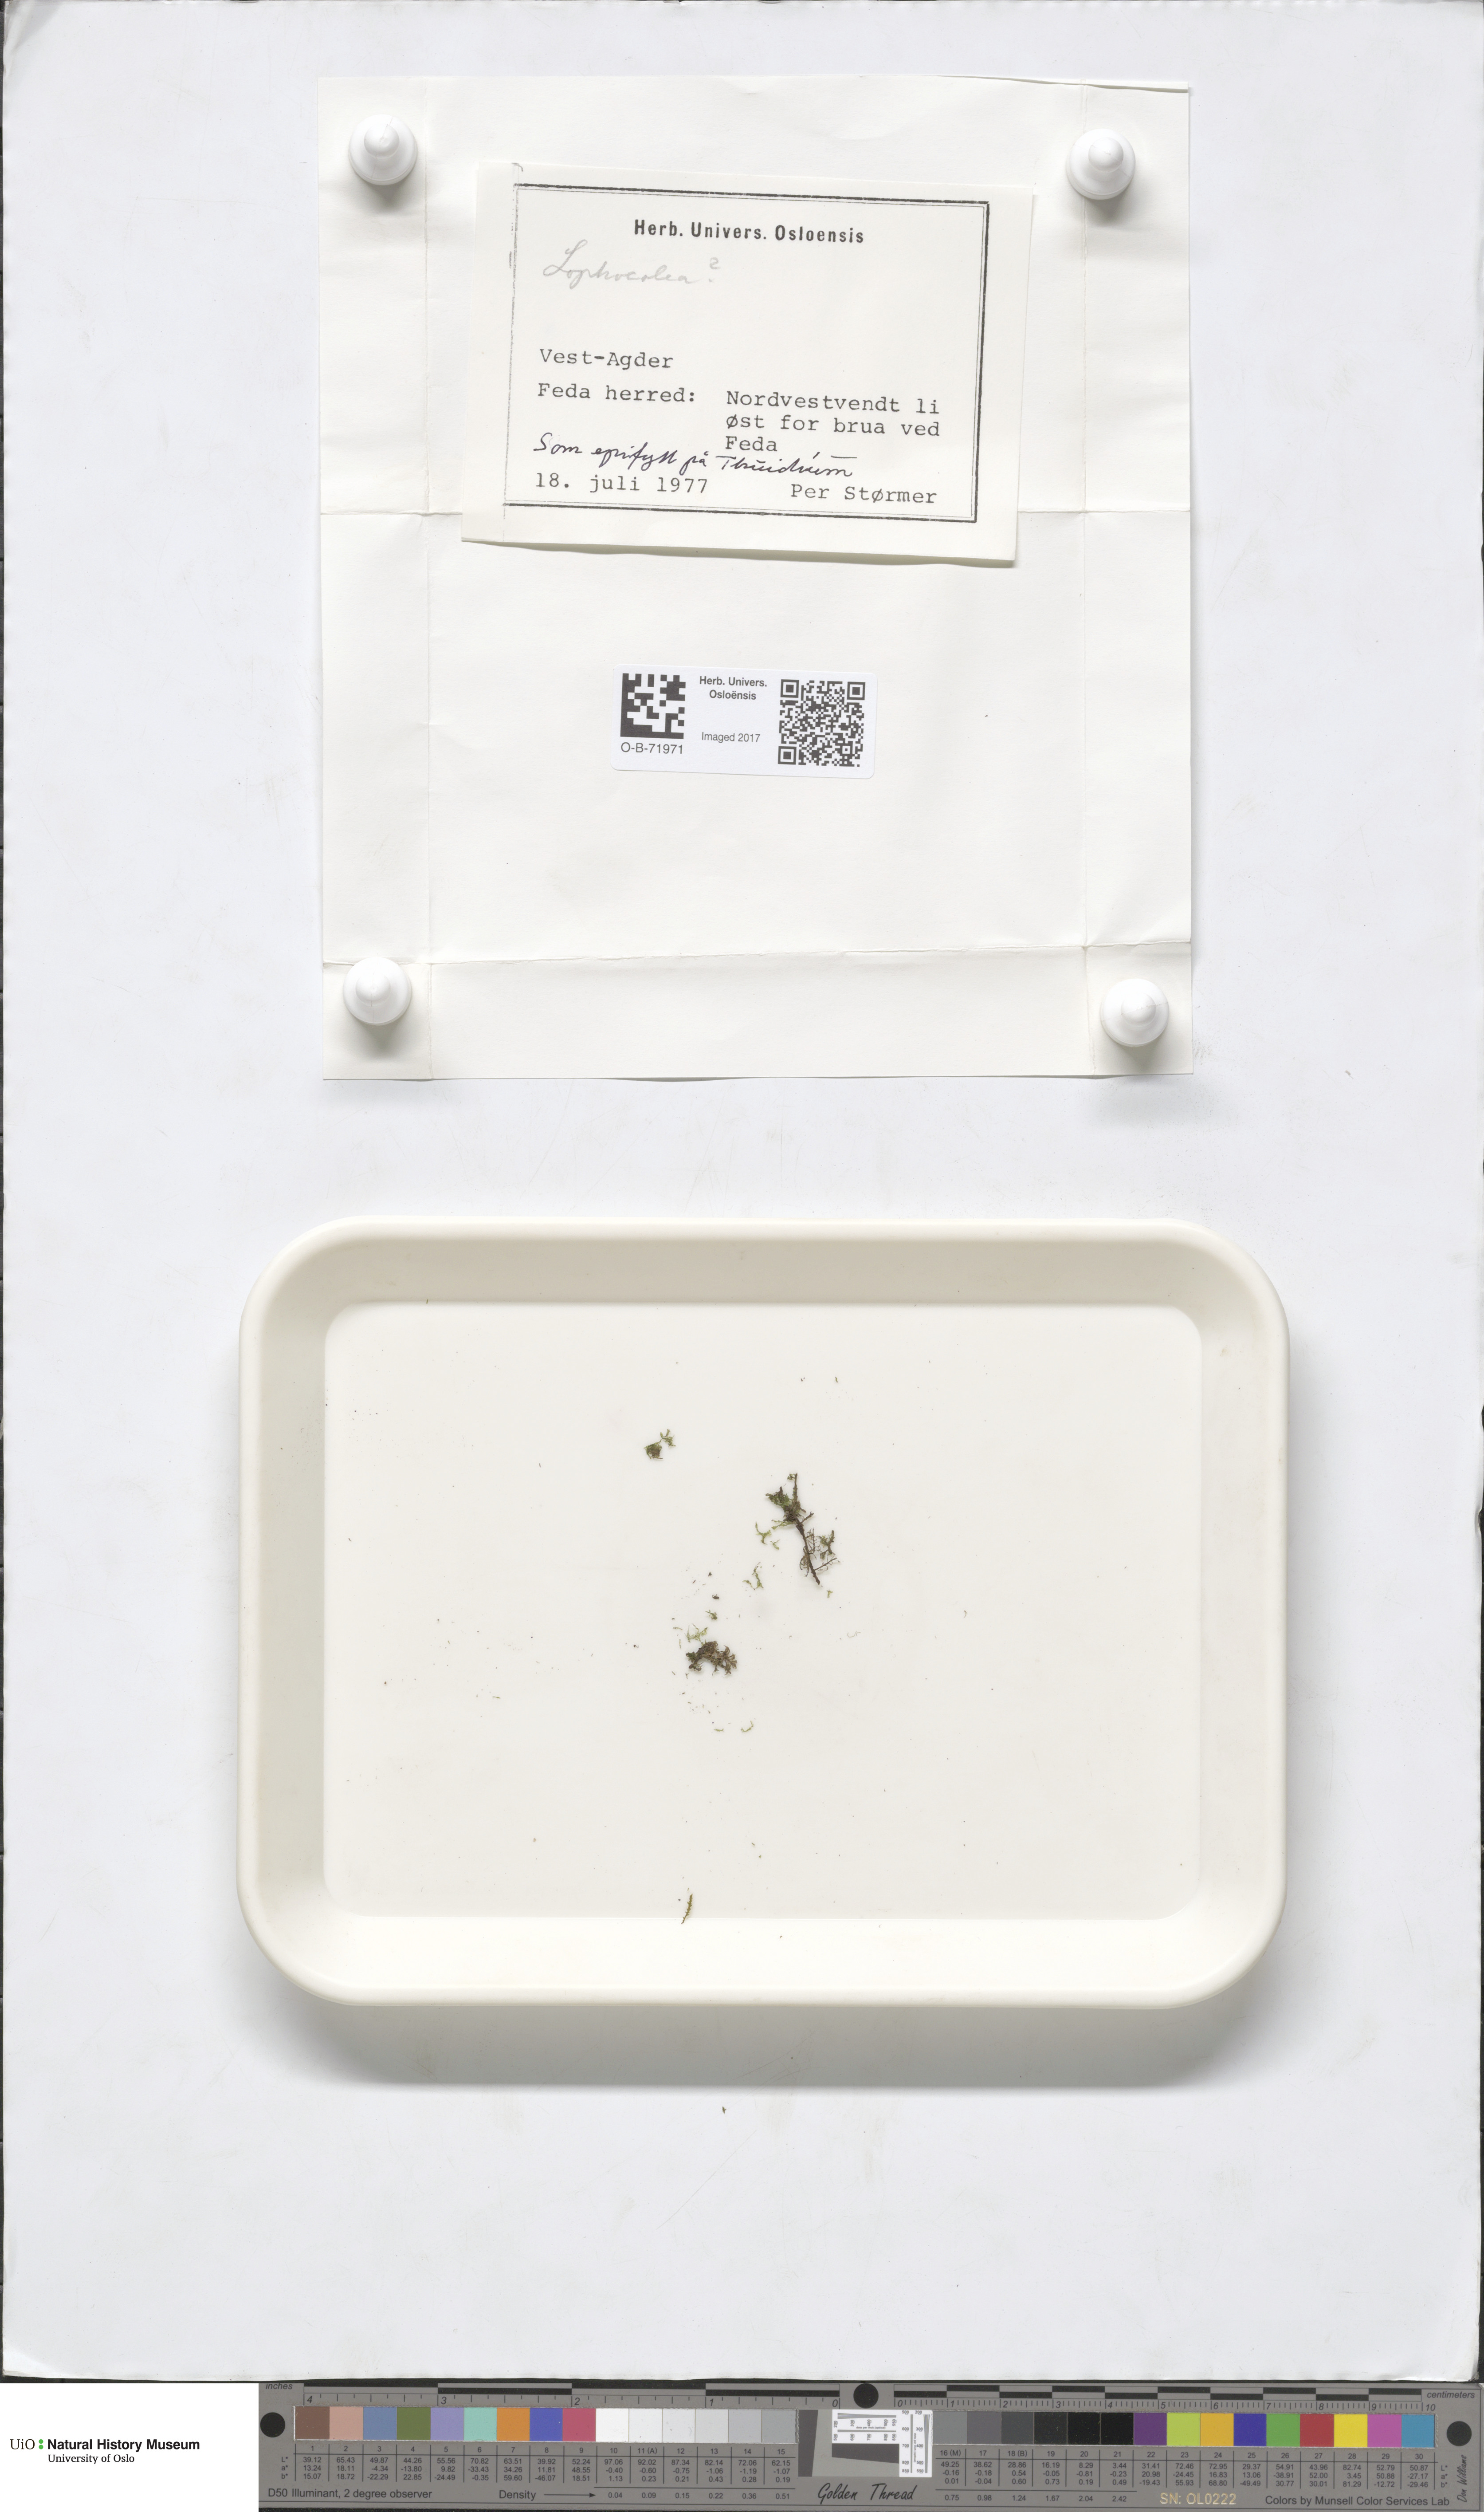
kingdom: Plantae
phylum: Marchantiophyta
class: Jungermanniopsida
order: Jungermanniales
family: Lophocoleaceae
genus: Lophocolea
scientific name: Lophocolea coadunata
